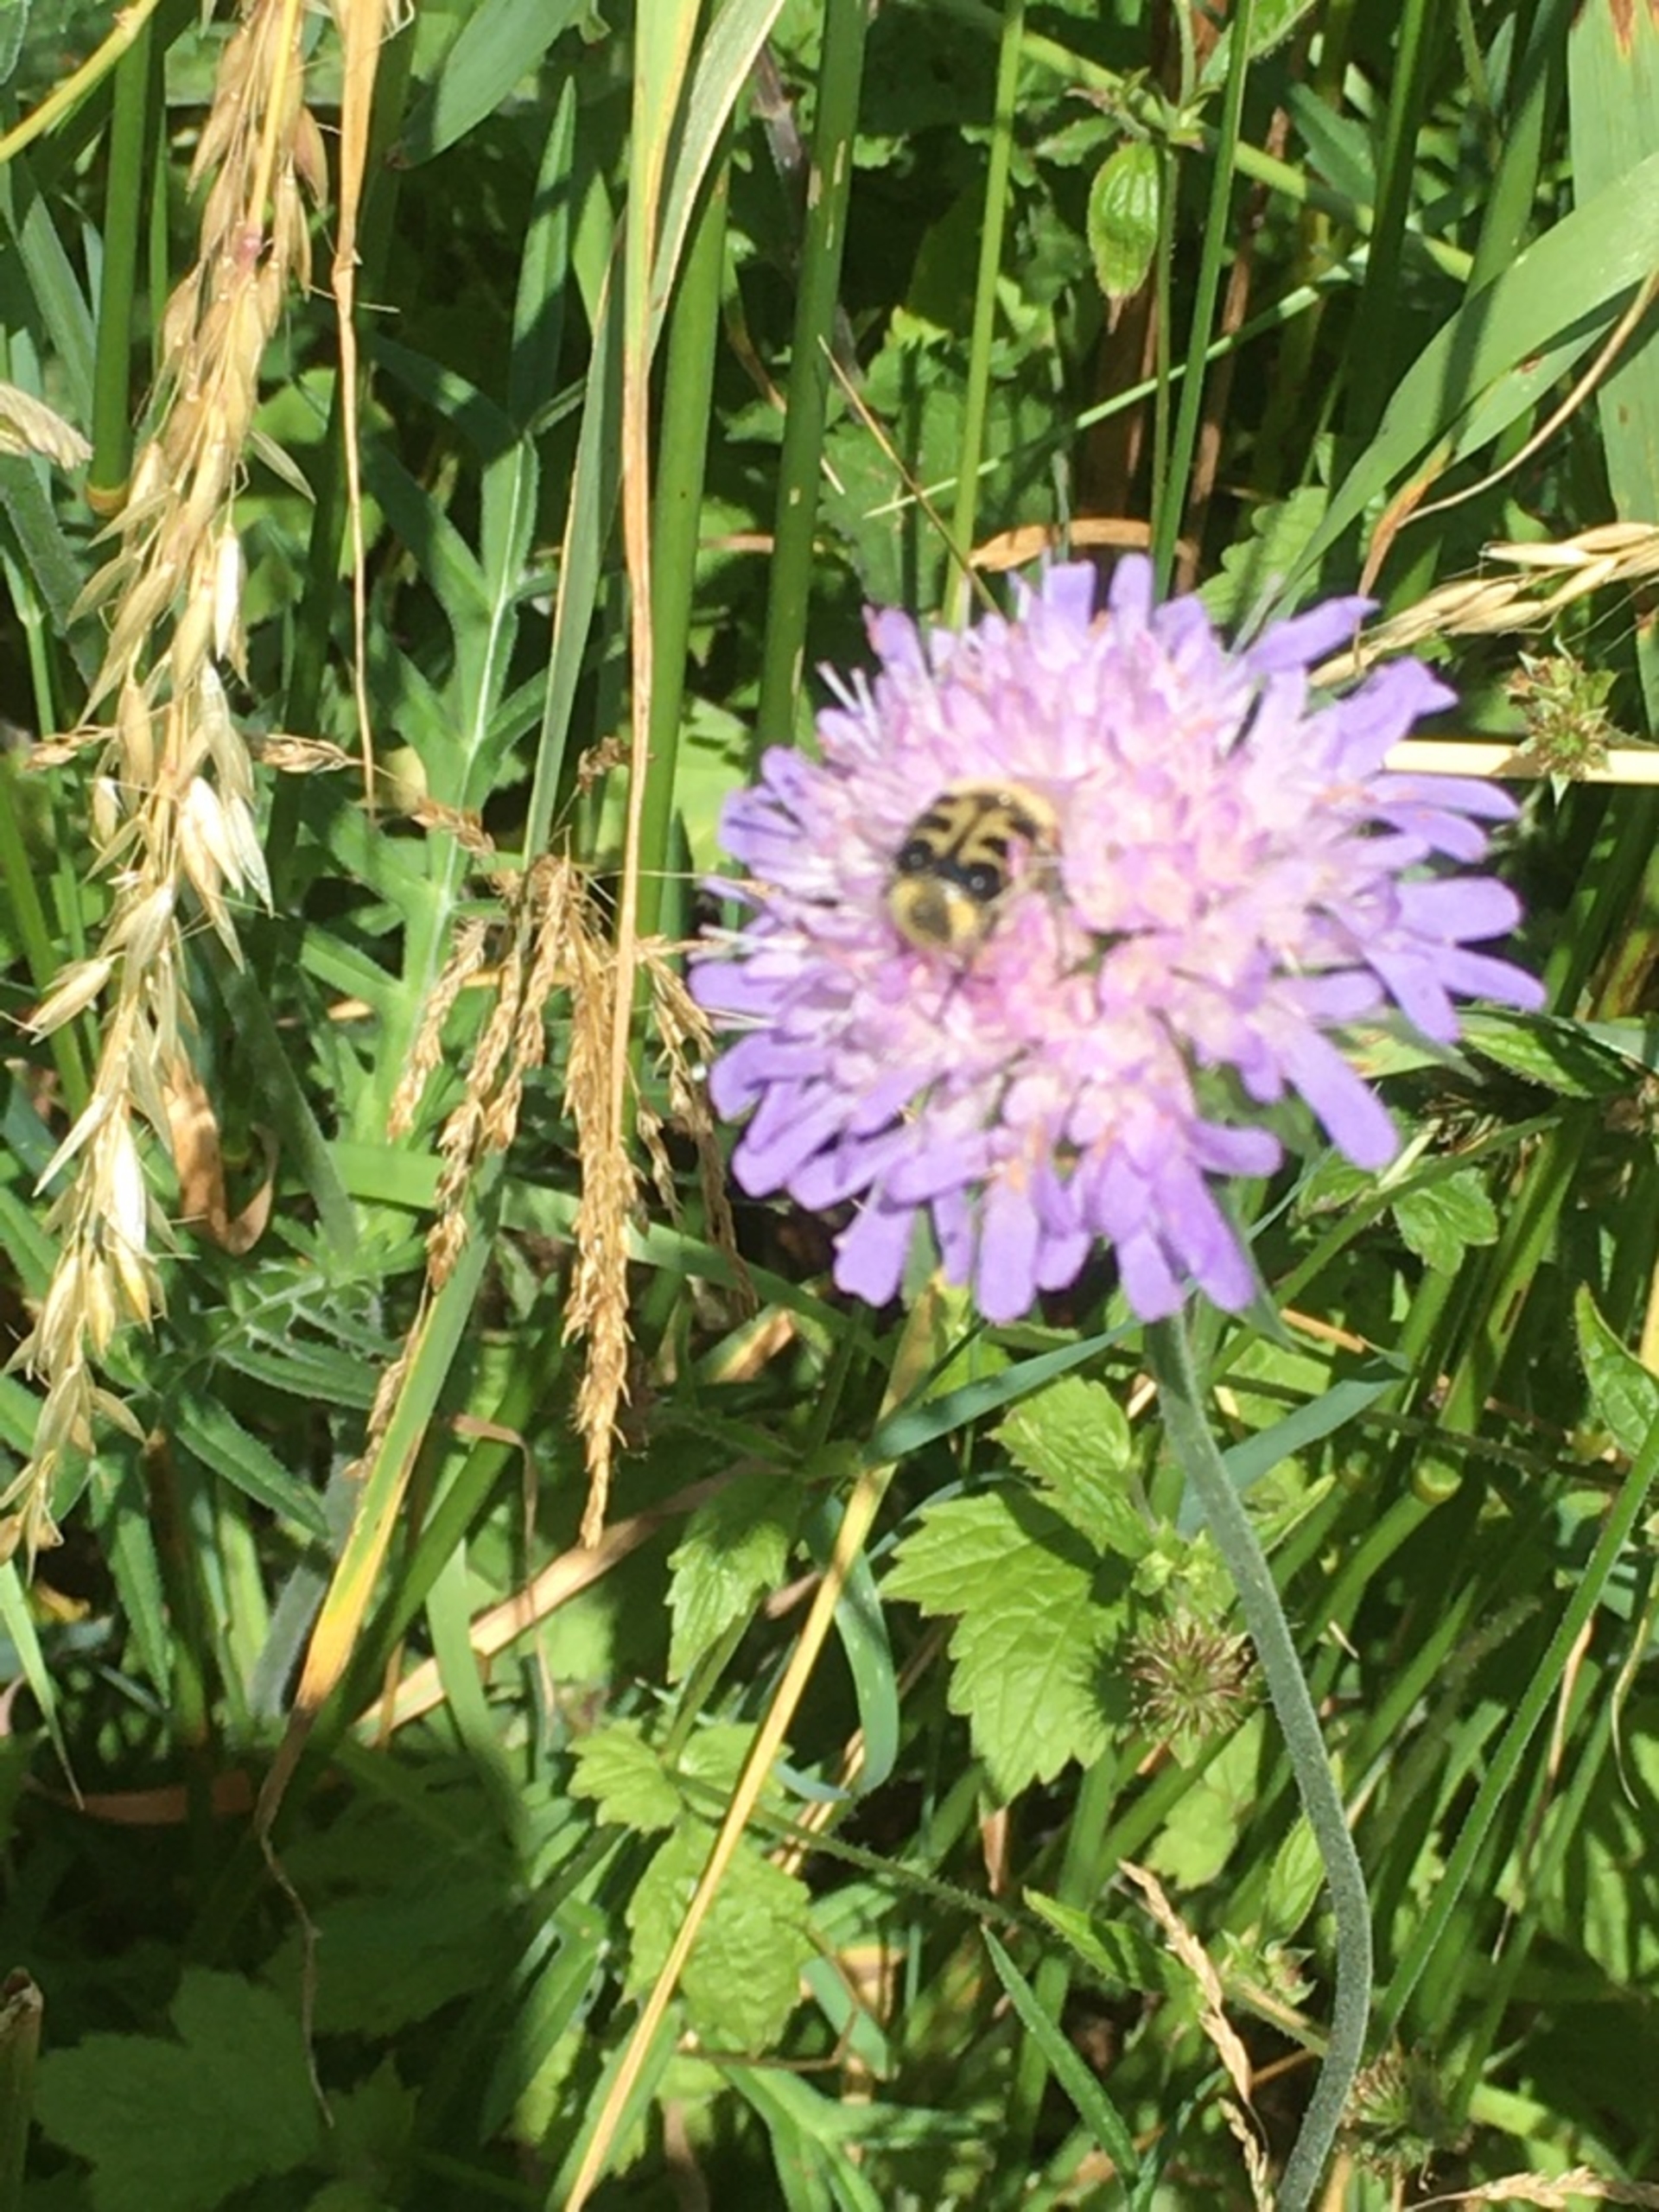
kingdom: Animalia
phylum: Arthropoda
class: Insecta
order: Coleoptera
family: Scarabaeidae
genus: Trichius
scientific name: Trichius gallicus
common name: Lille humlebille
